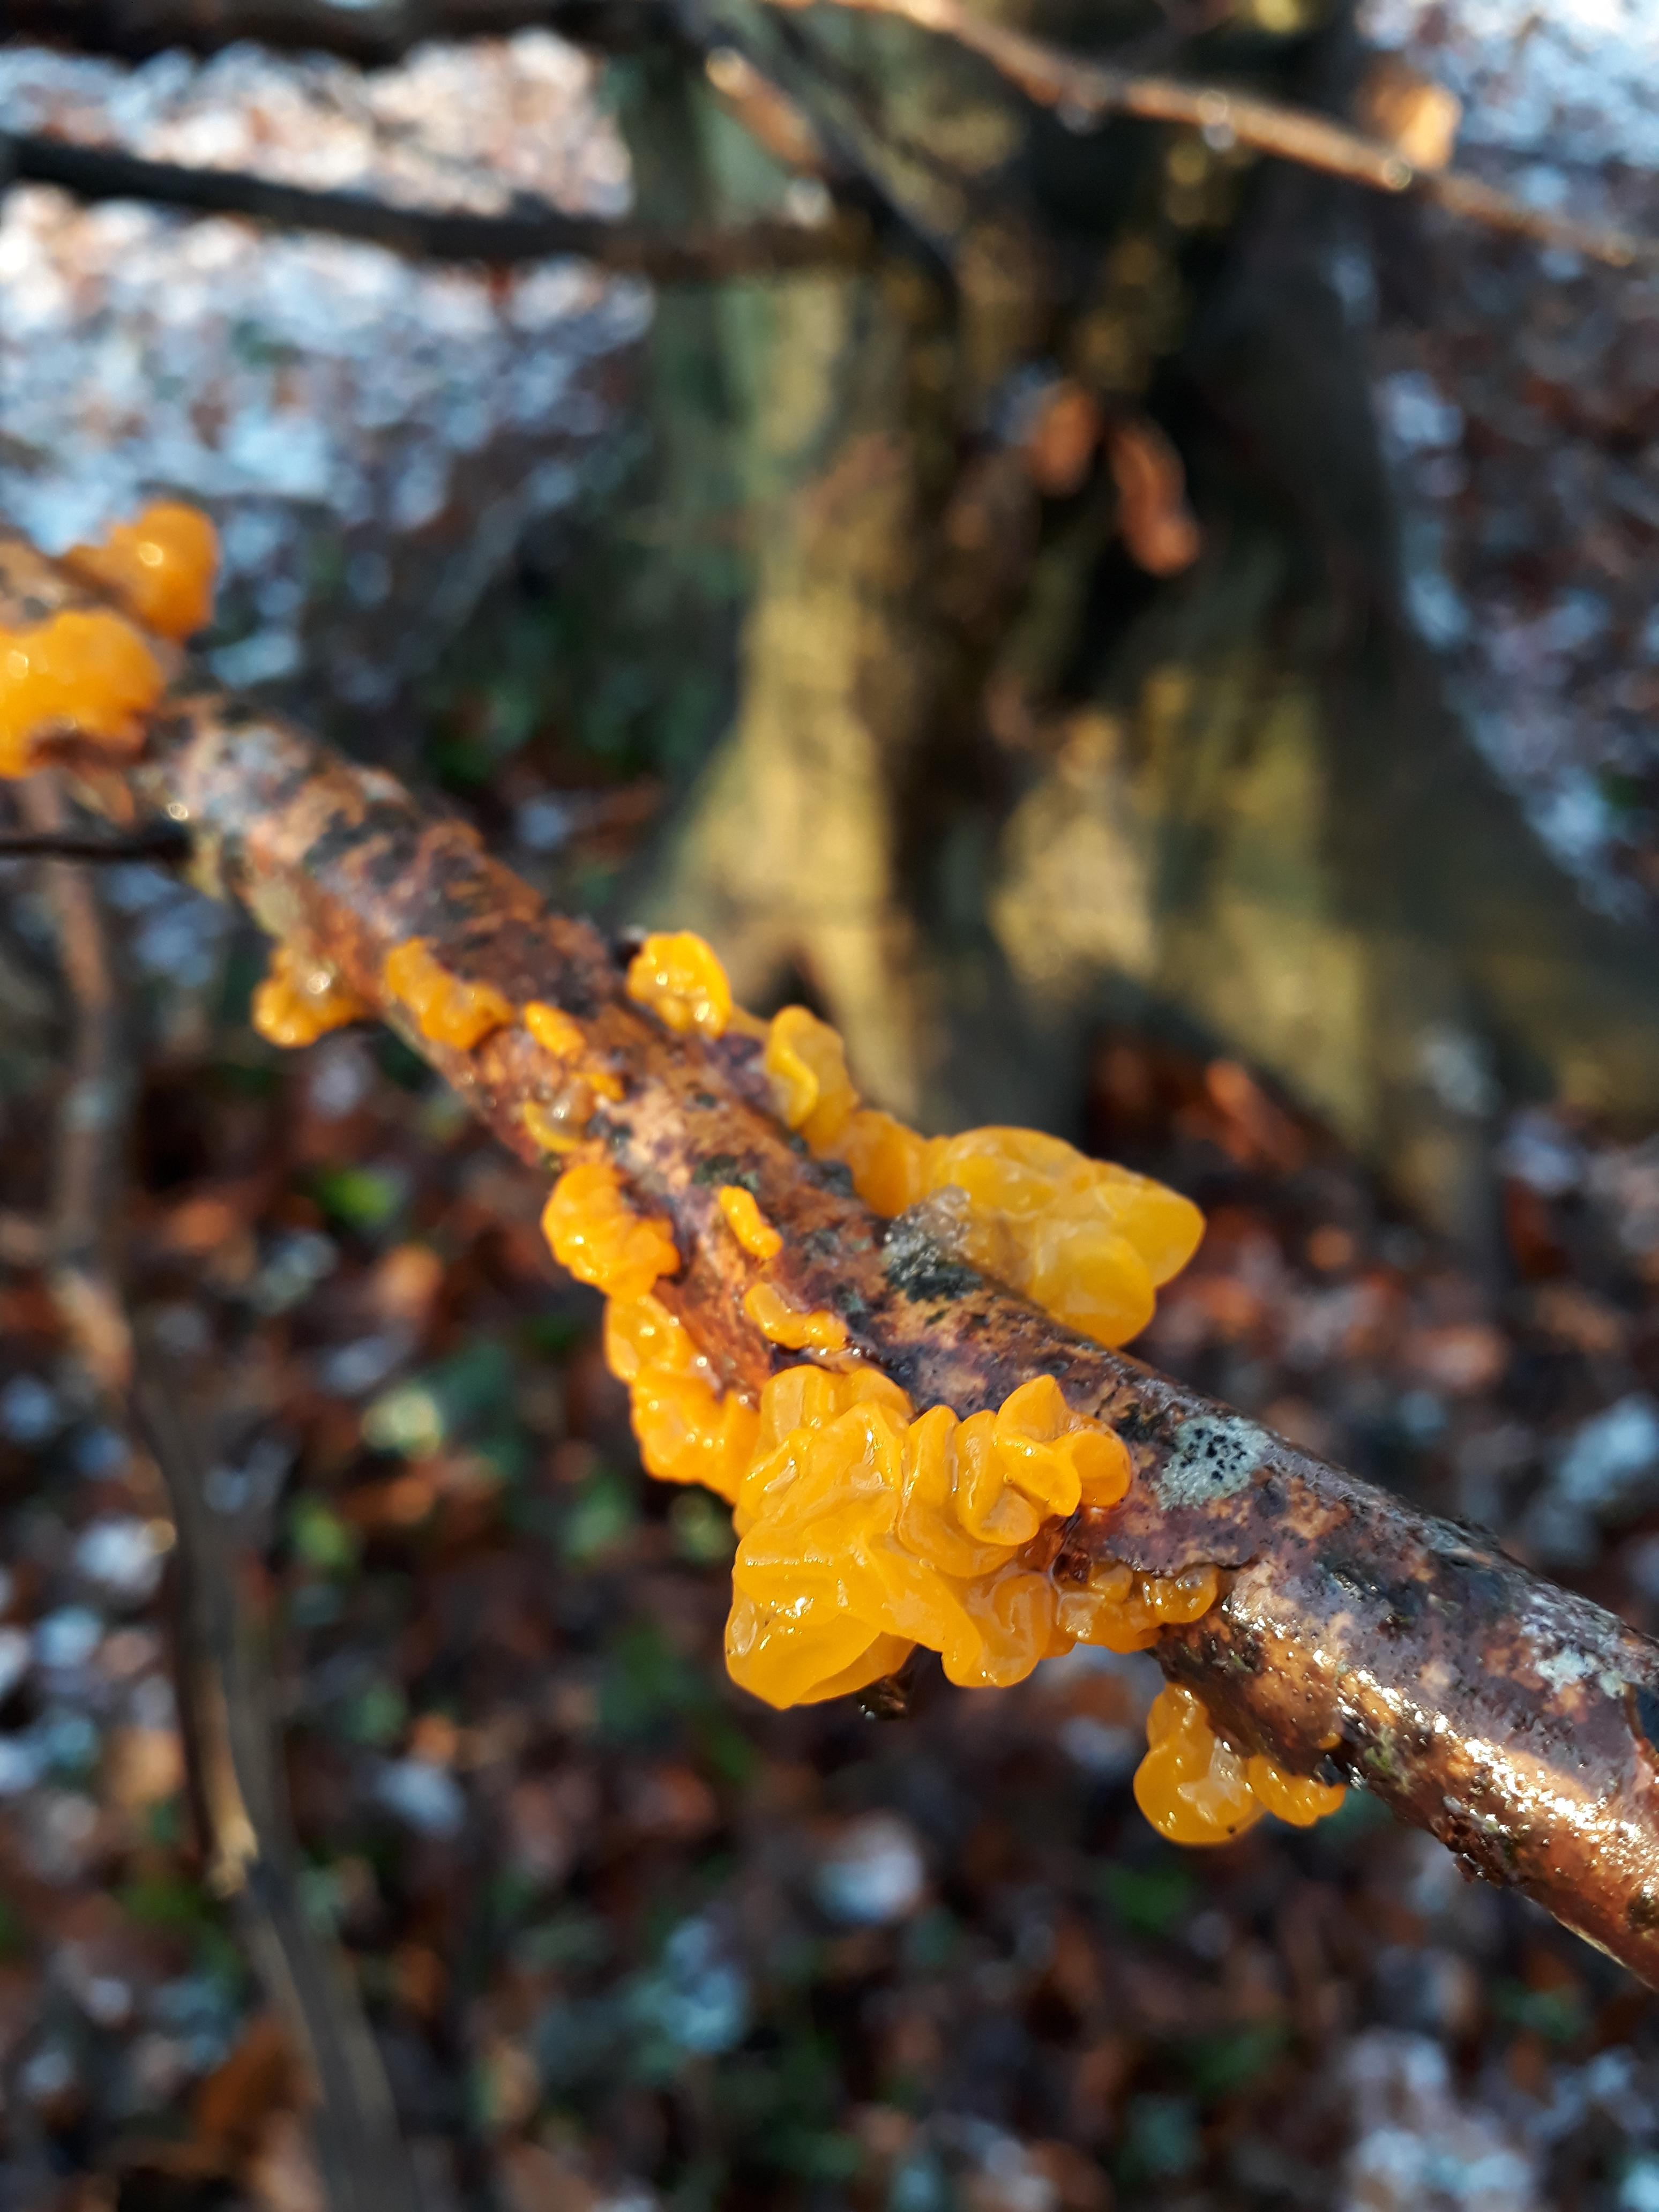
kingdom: Fungi
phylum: Basidiomycota
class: Tremellomycetes
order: Tremellales
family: Tremellaceae
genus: Tremella
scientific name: Tremella mesenterica
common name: gul bævresvamp
